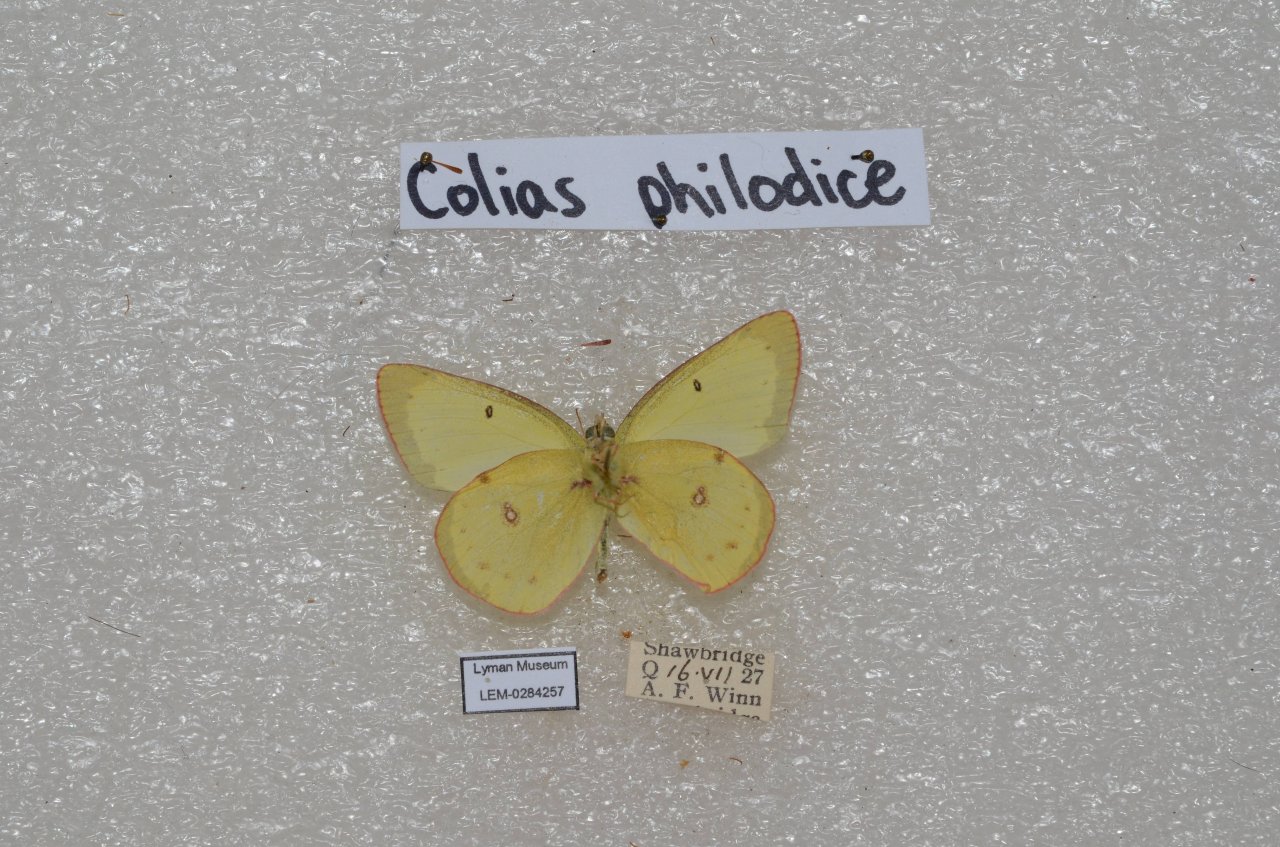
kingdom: Animalia
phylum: Arthropoda
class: Insecta
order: Lepidoptera
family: Pieridae
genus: Colias
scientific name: Colias philodice
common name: Clouded Sulphur
